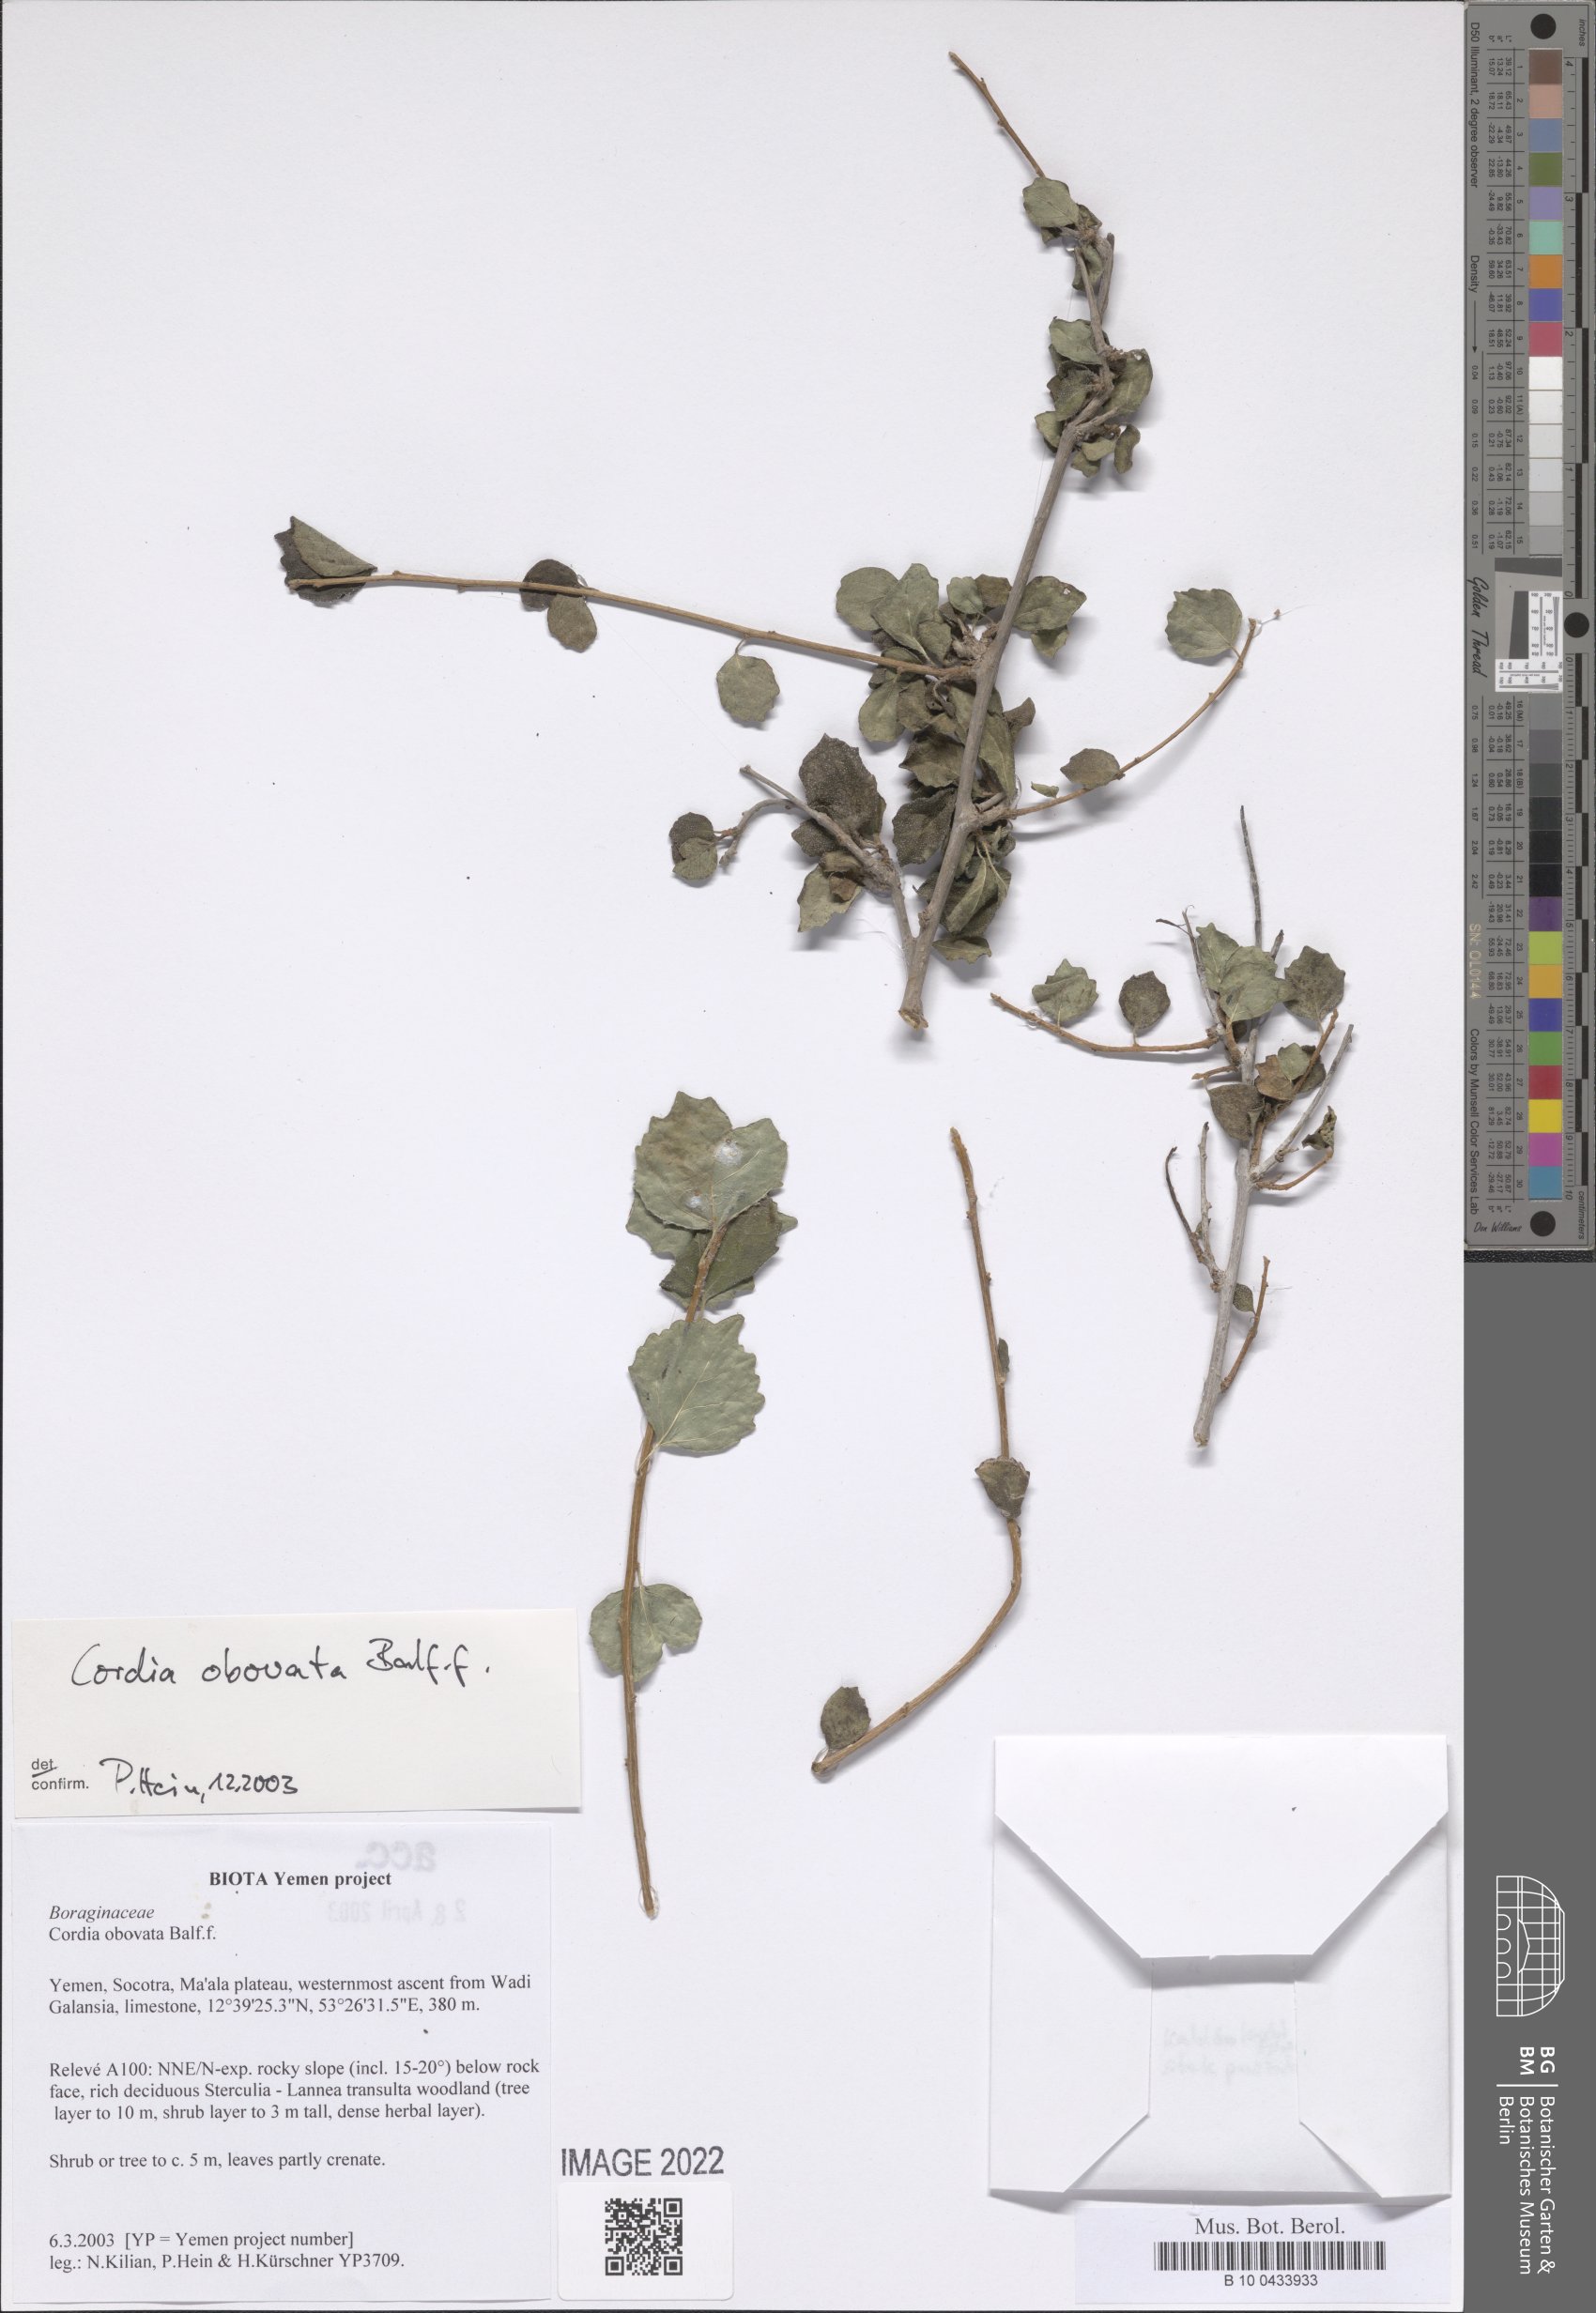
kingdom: Plantae
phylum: Tracheophyta
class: Magnoliopsida
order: Boraginales
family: Cordiaceae
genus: Cordia
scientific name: Cordia obovata
